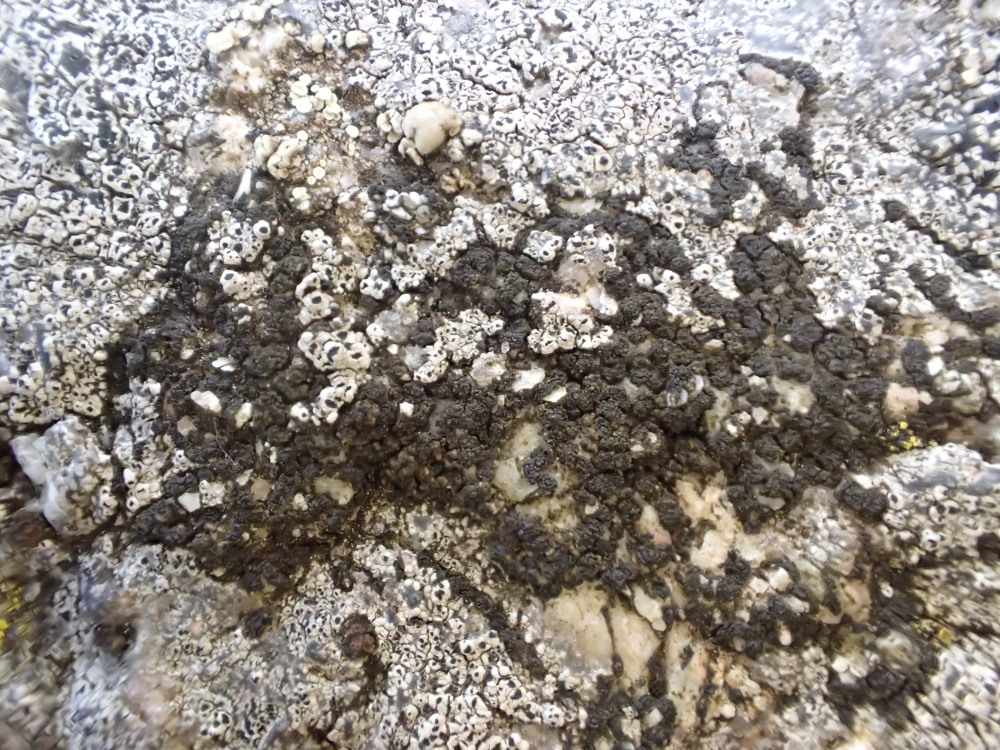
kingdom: Fungi
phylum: Ascomycota
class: Lecanoromycetes
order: Acarosporales
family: Acarosporaceae
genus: Acarospora
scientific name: Acarospora privigna
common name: sort foldekantlav
